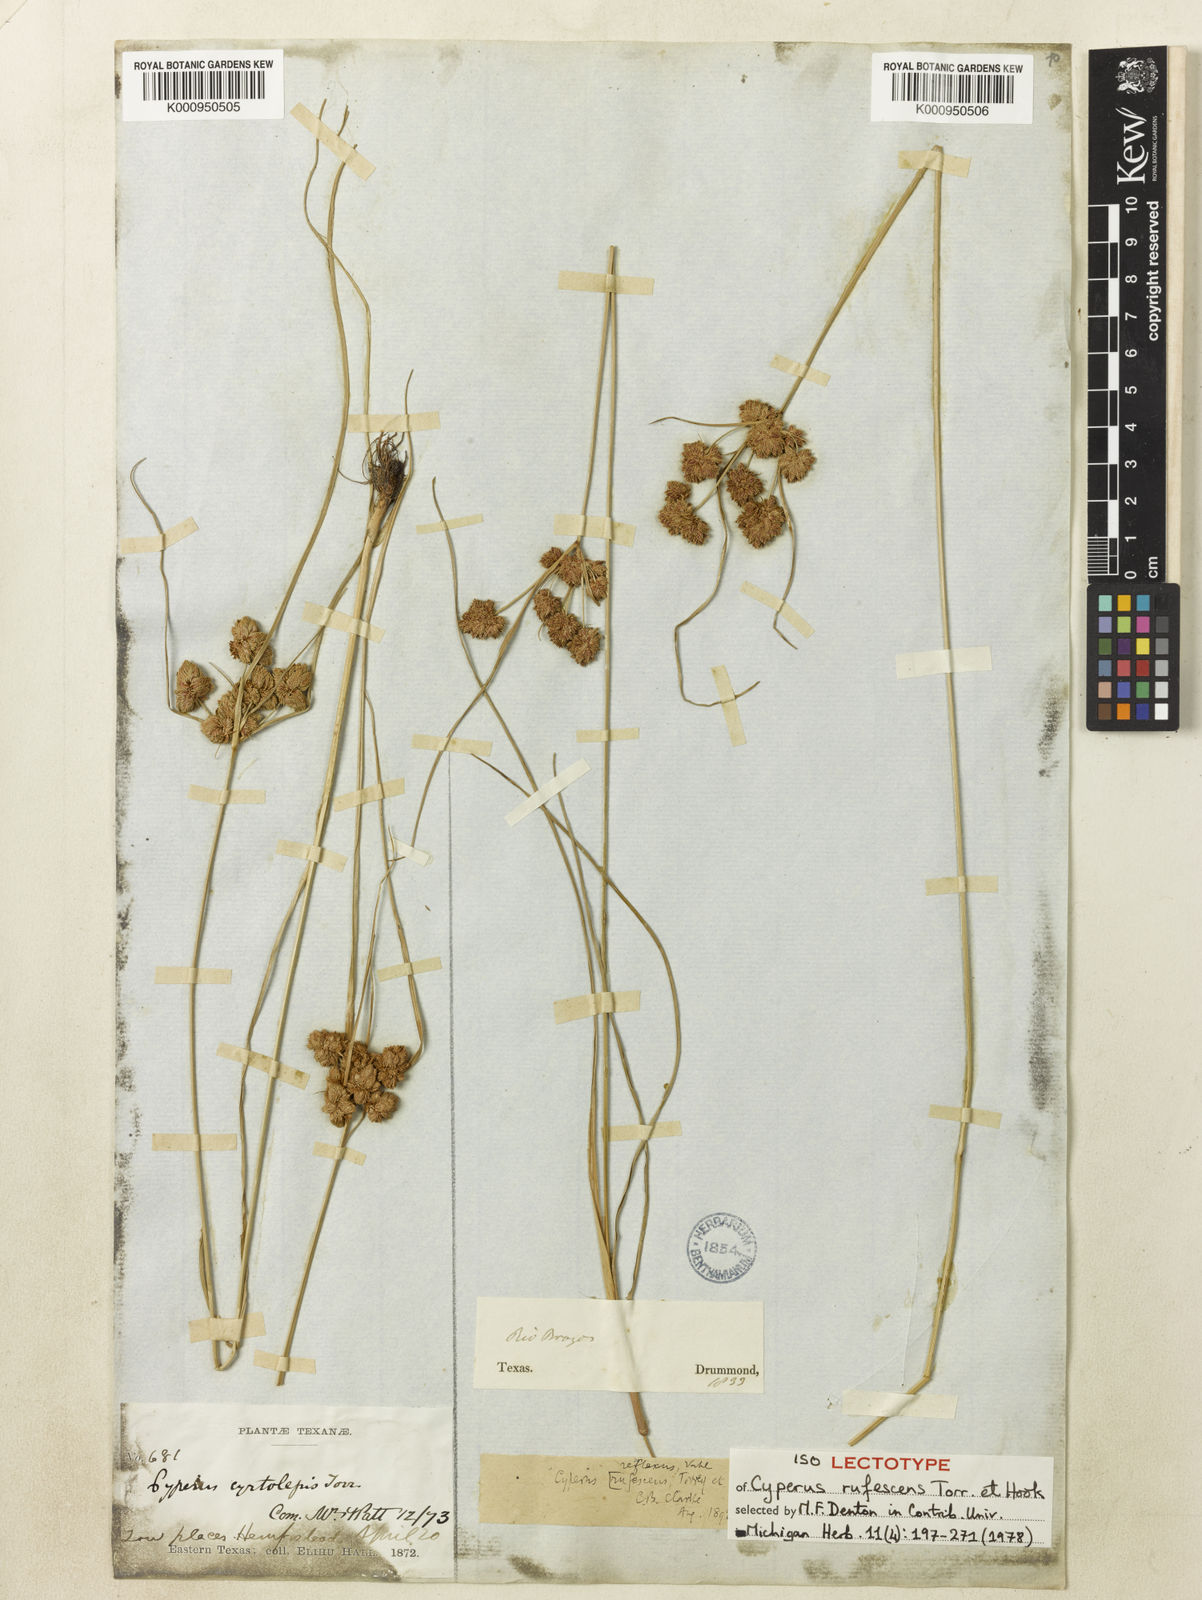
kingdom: Plantae
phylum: Tracheophyta
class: Liliopsida
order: Poales
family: Cyperaceae
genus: Cyperus
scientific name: Cyperus reflexus
